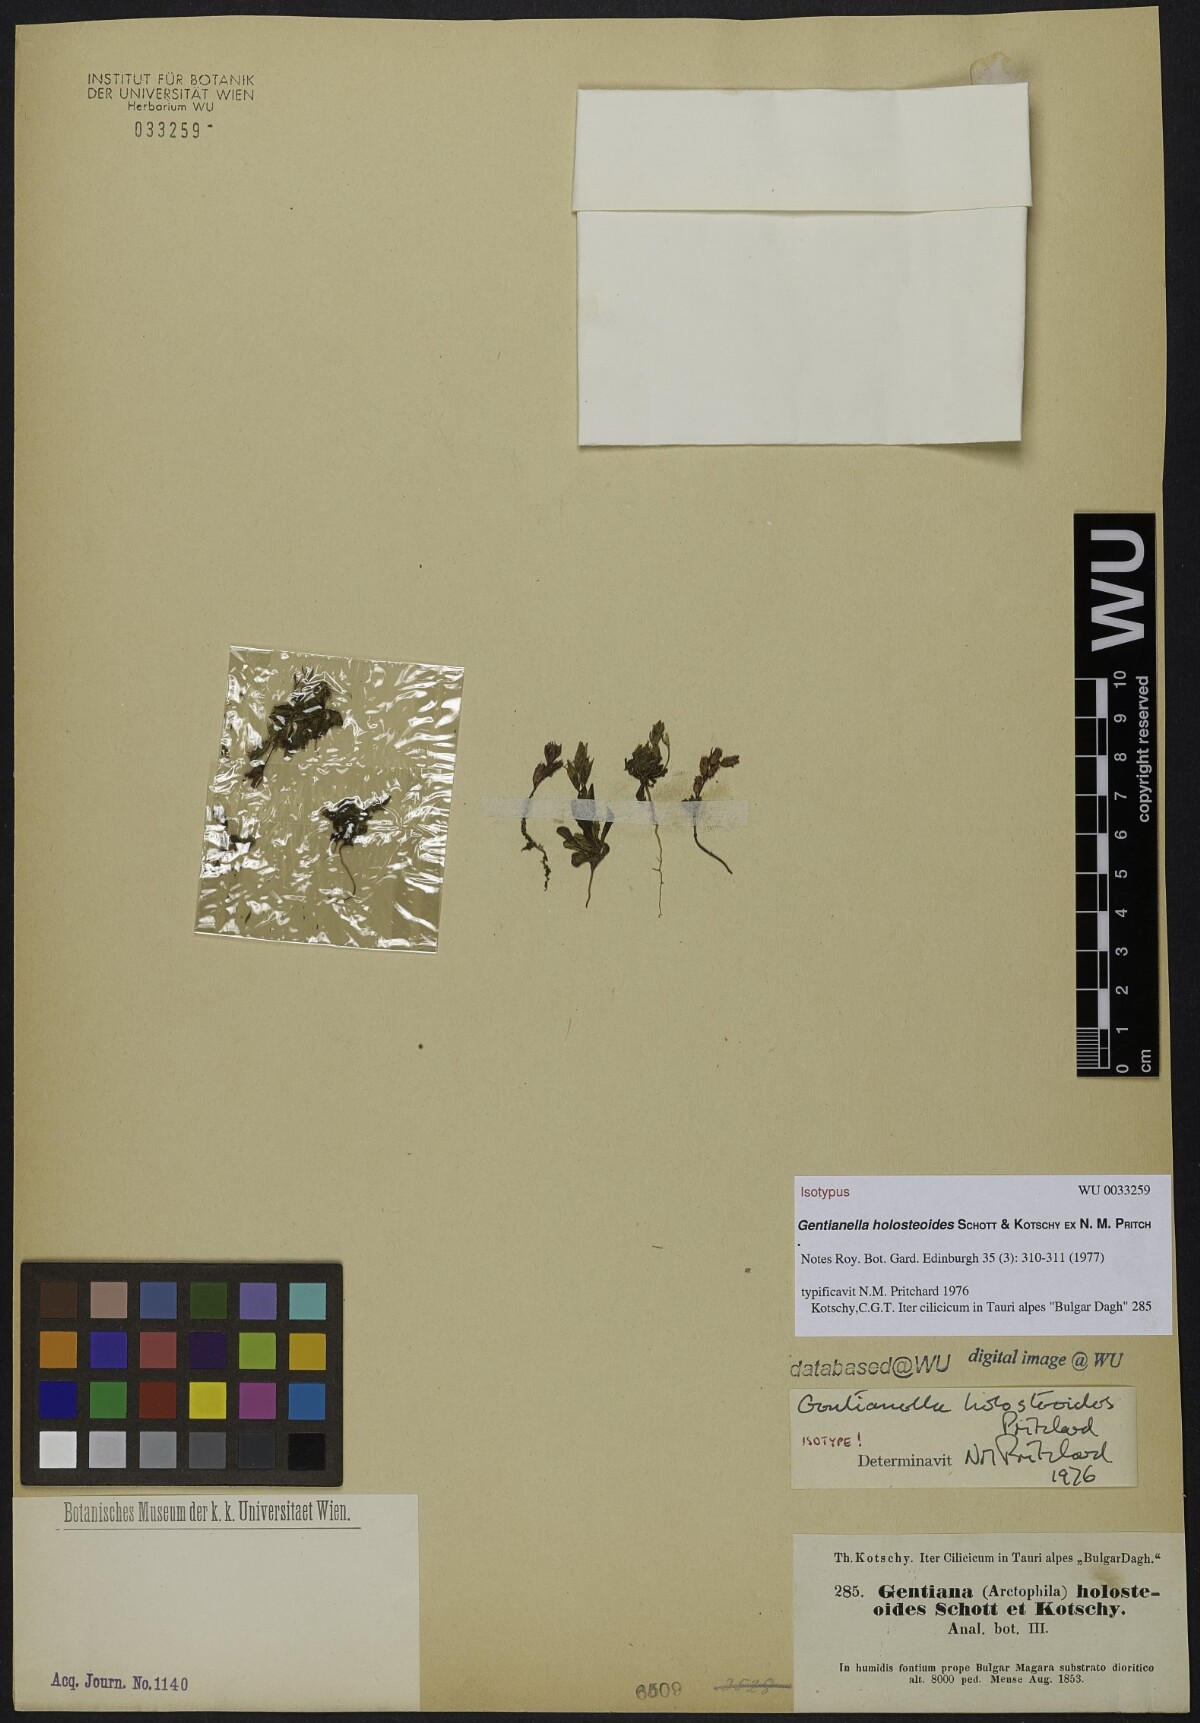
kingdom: Plantae
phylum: Tracheophyta
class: Magnoliopsida
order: Gentianales
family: Gentianaceae
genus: Gentianella
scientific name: Gentianella holosteoides
